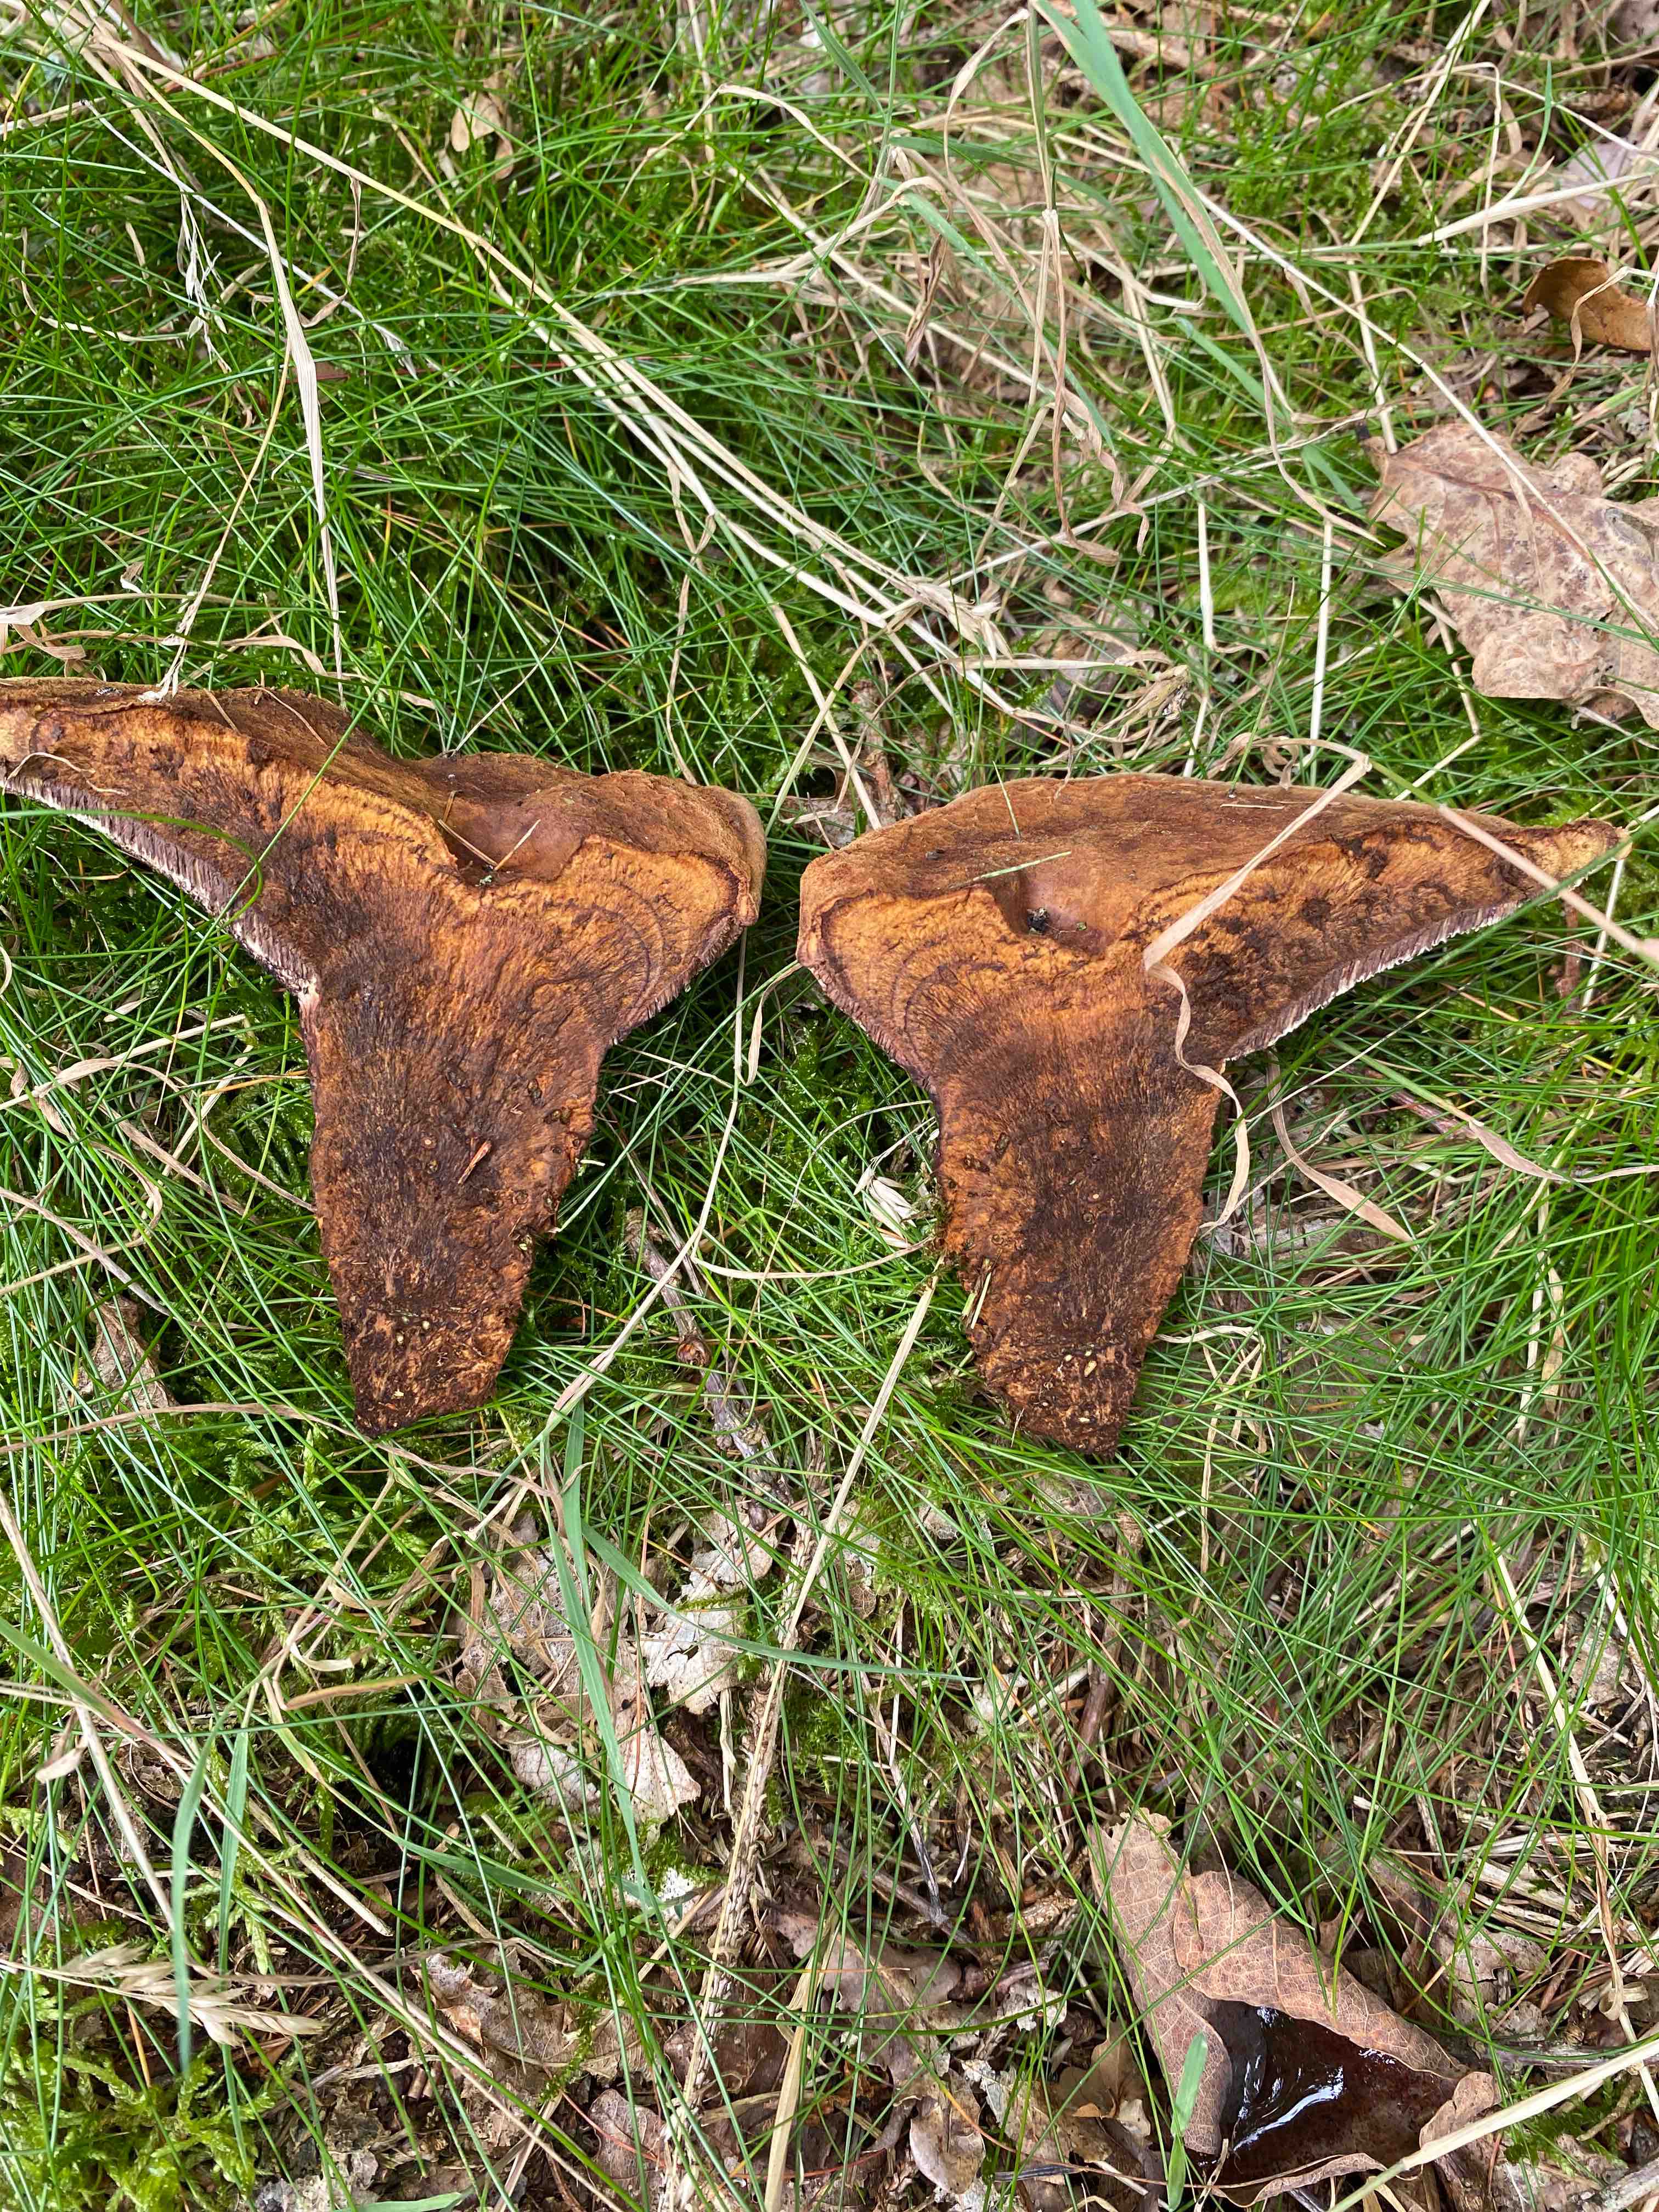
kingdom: Fungi
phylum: Basidiomycota
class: Agaricomycetes
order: Polyporales
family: Laetiporaceae
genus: Phaeolus
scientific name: Phaeolus schweinitzii
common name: brunporesvamp
